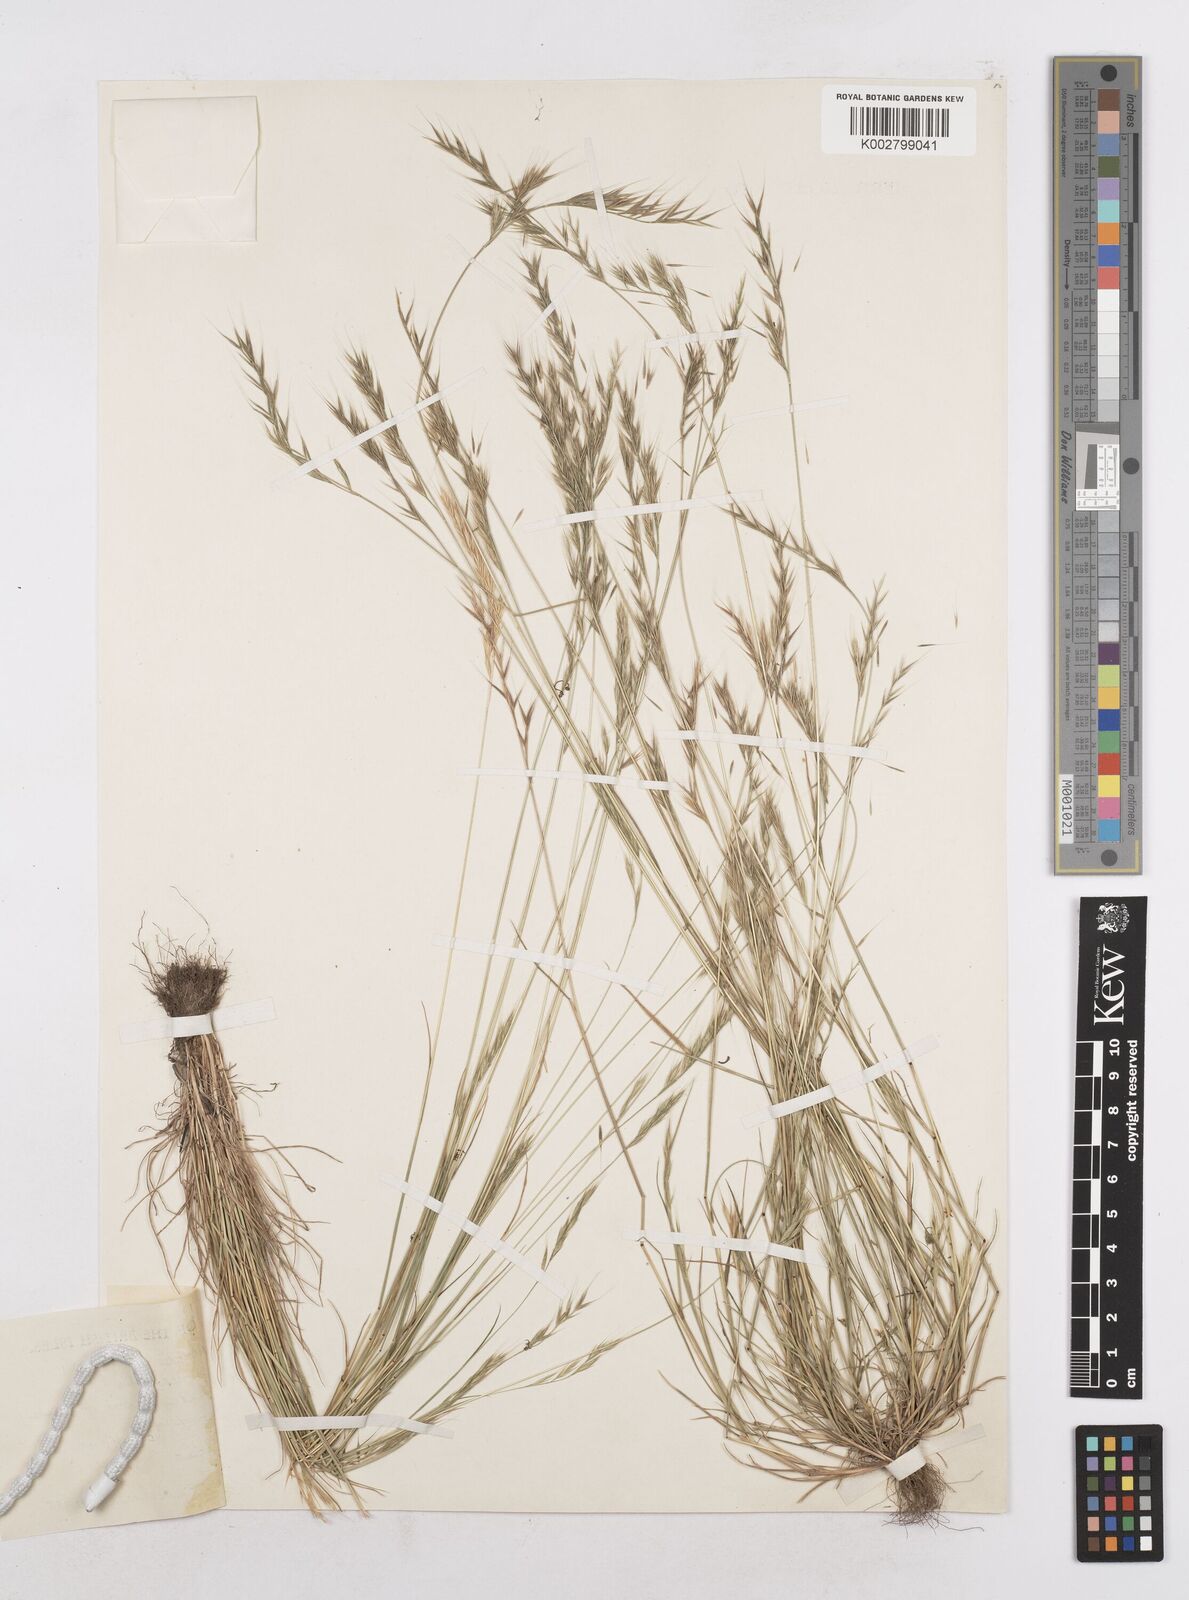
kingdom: Plantae
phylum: Tracheophyta
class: Liliopsida
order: Poales
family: Poaceae
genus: Festuca
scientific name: Festuca bromoides
